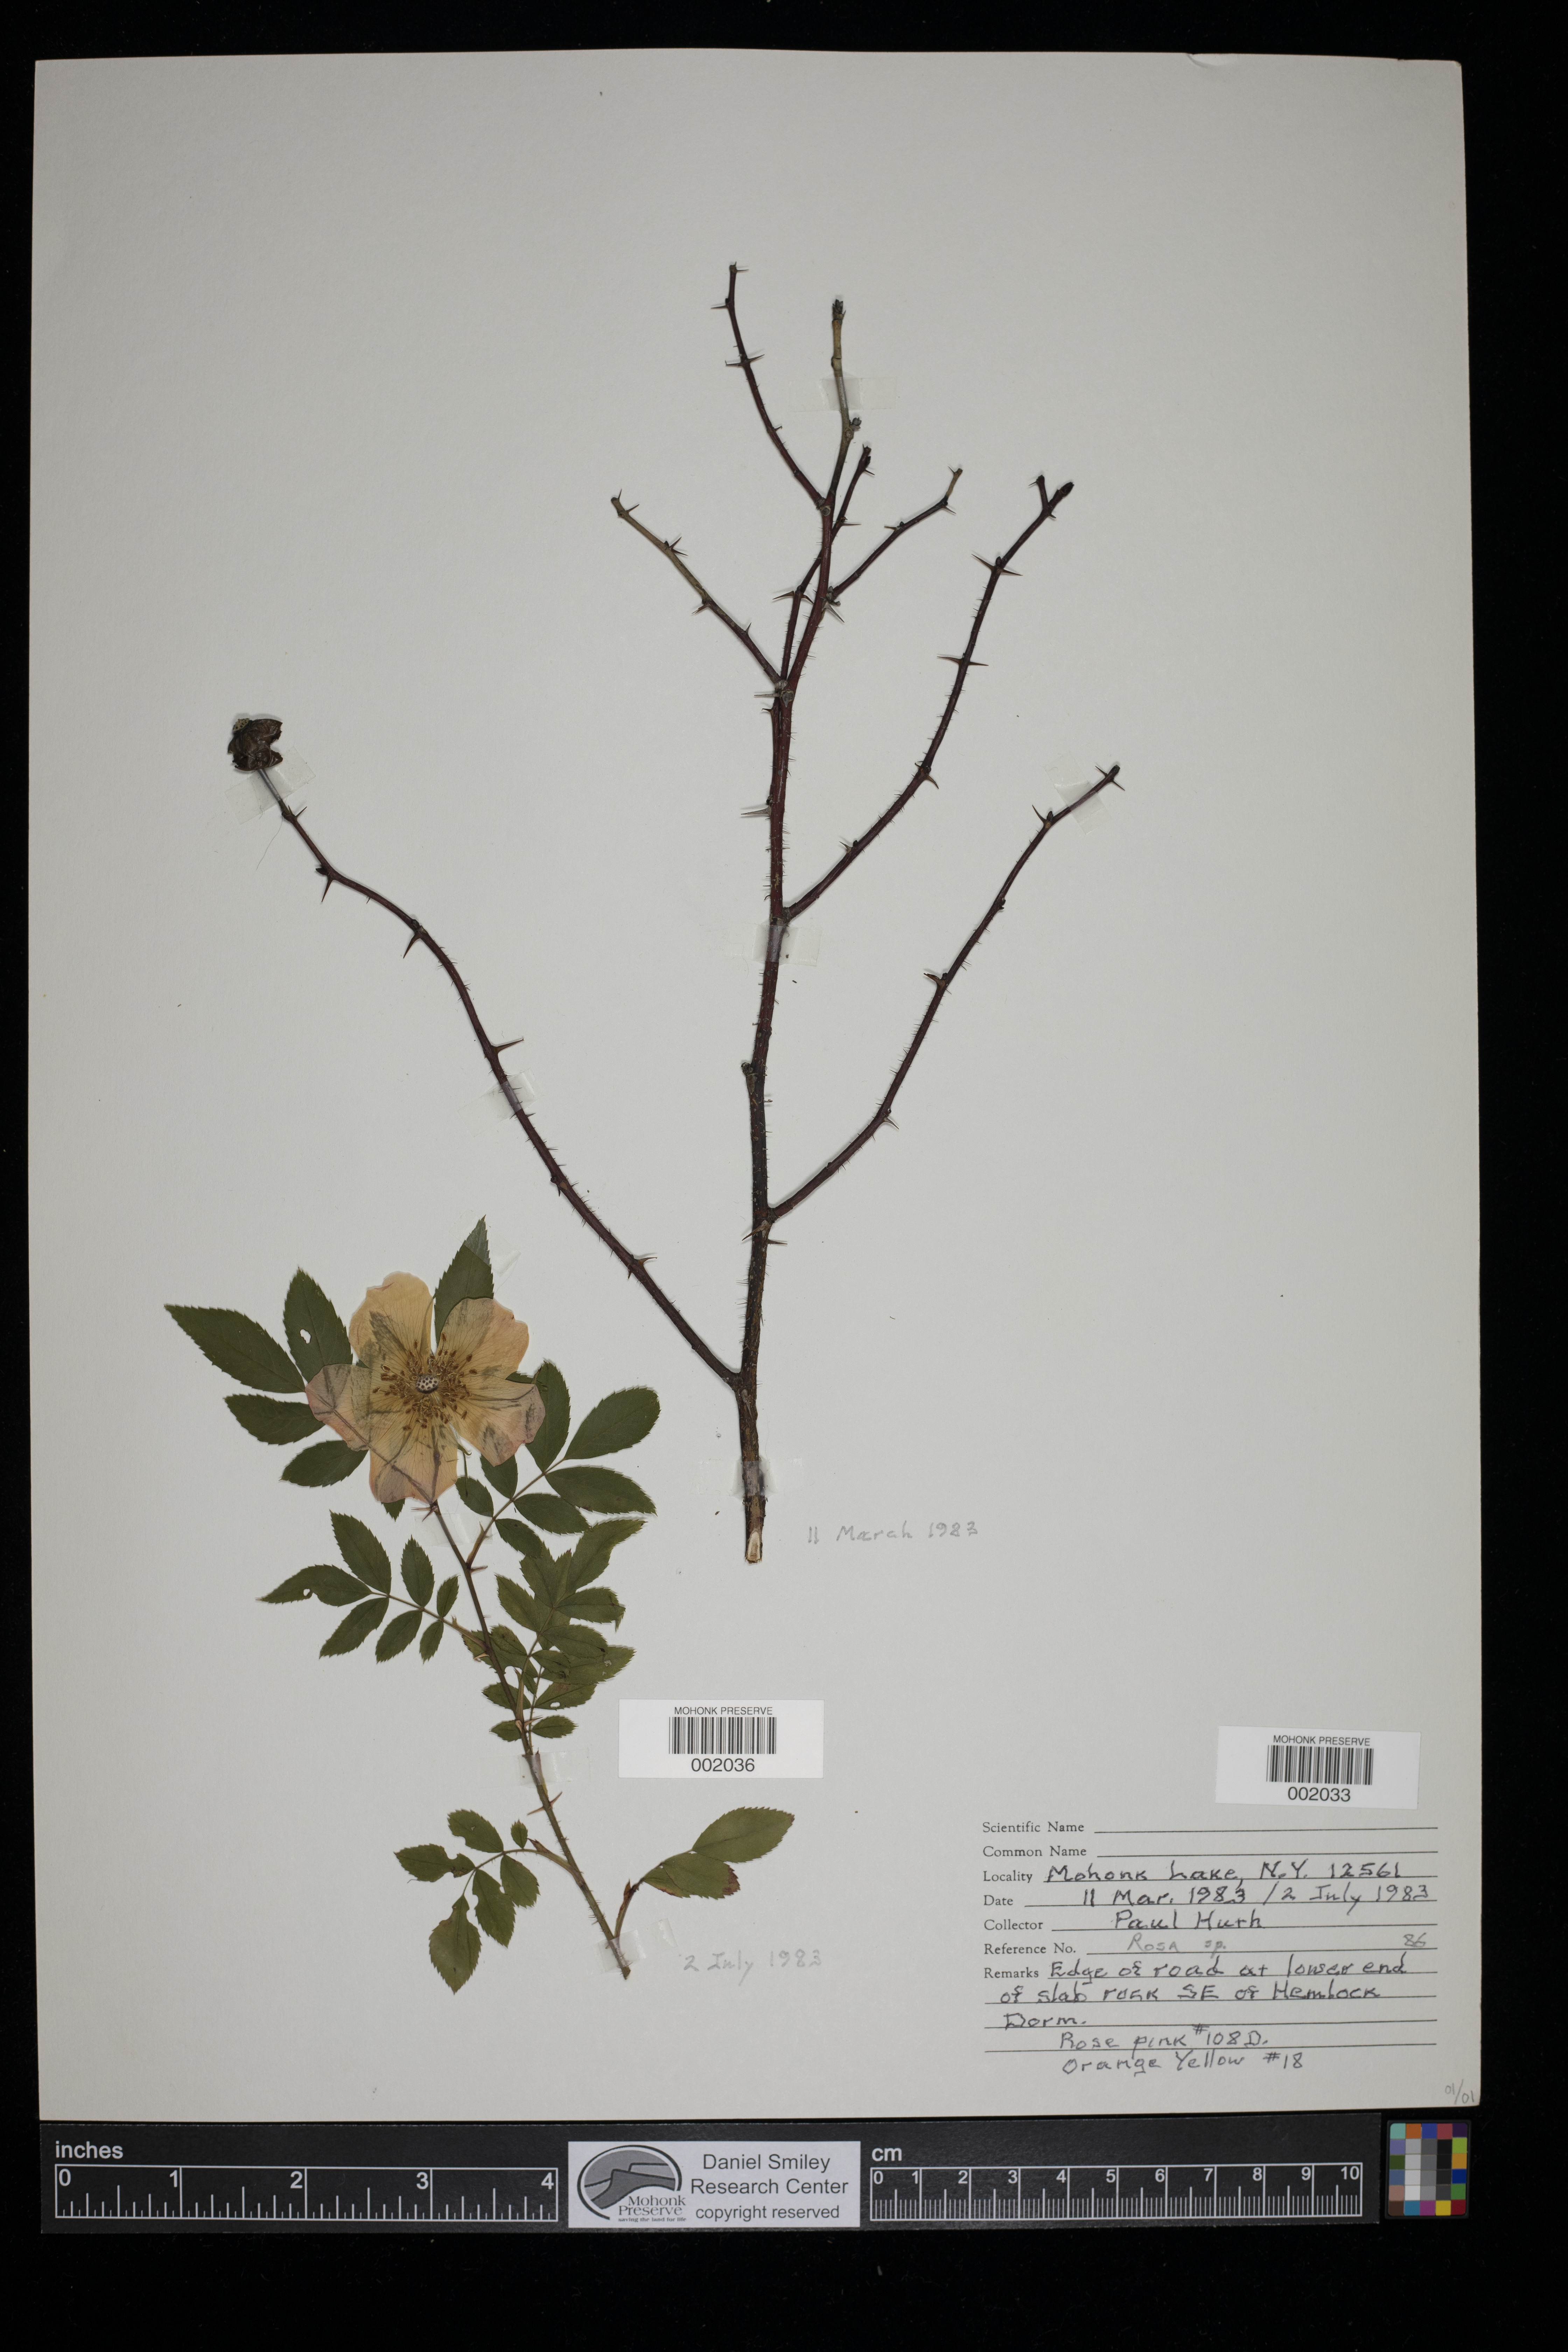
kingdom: Plantae
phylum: Tracheophyta
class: Magnoliopsida
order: Rosales
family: Rosaceae
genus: Rosa
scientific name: Rosa
